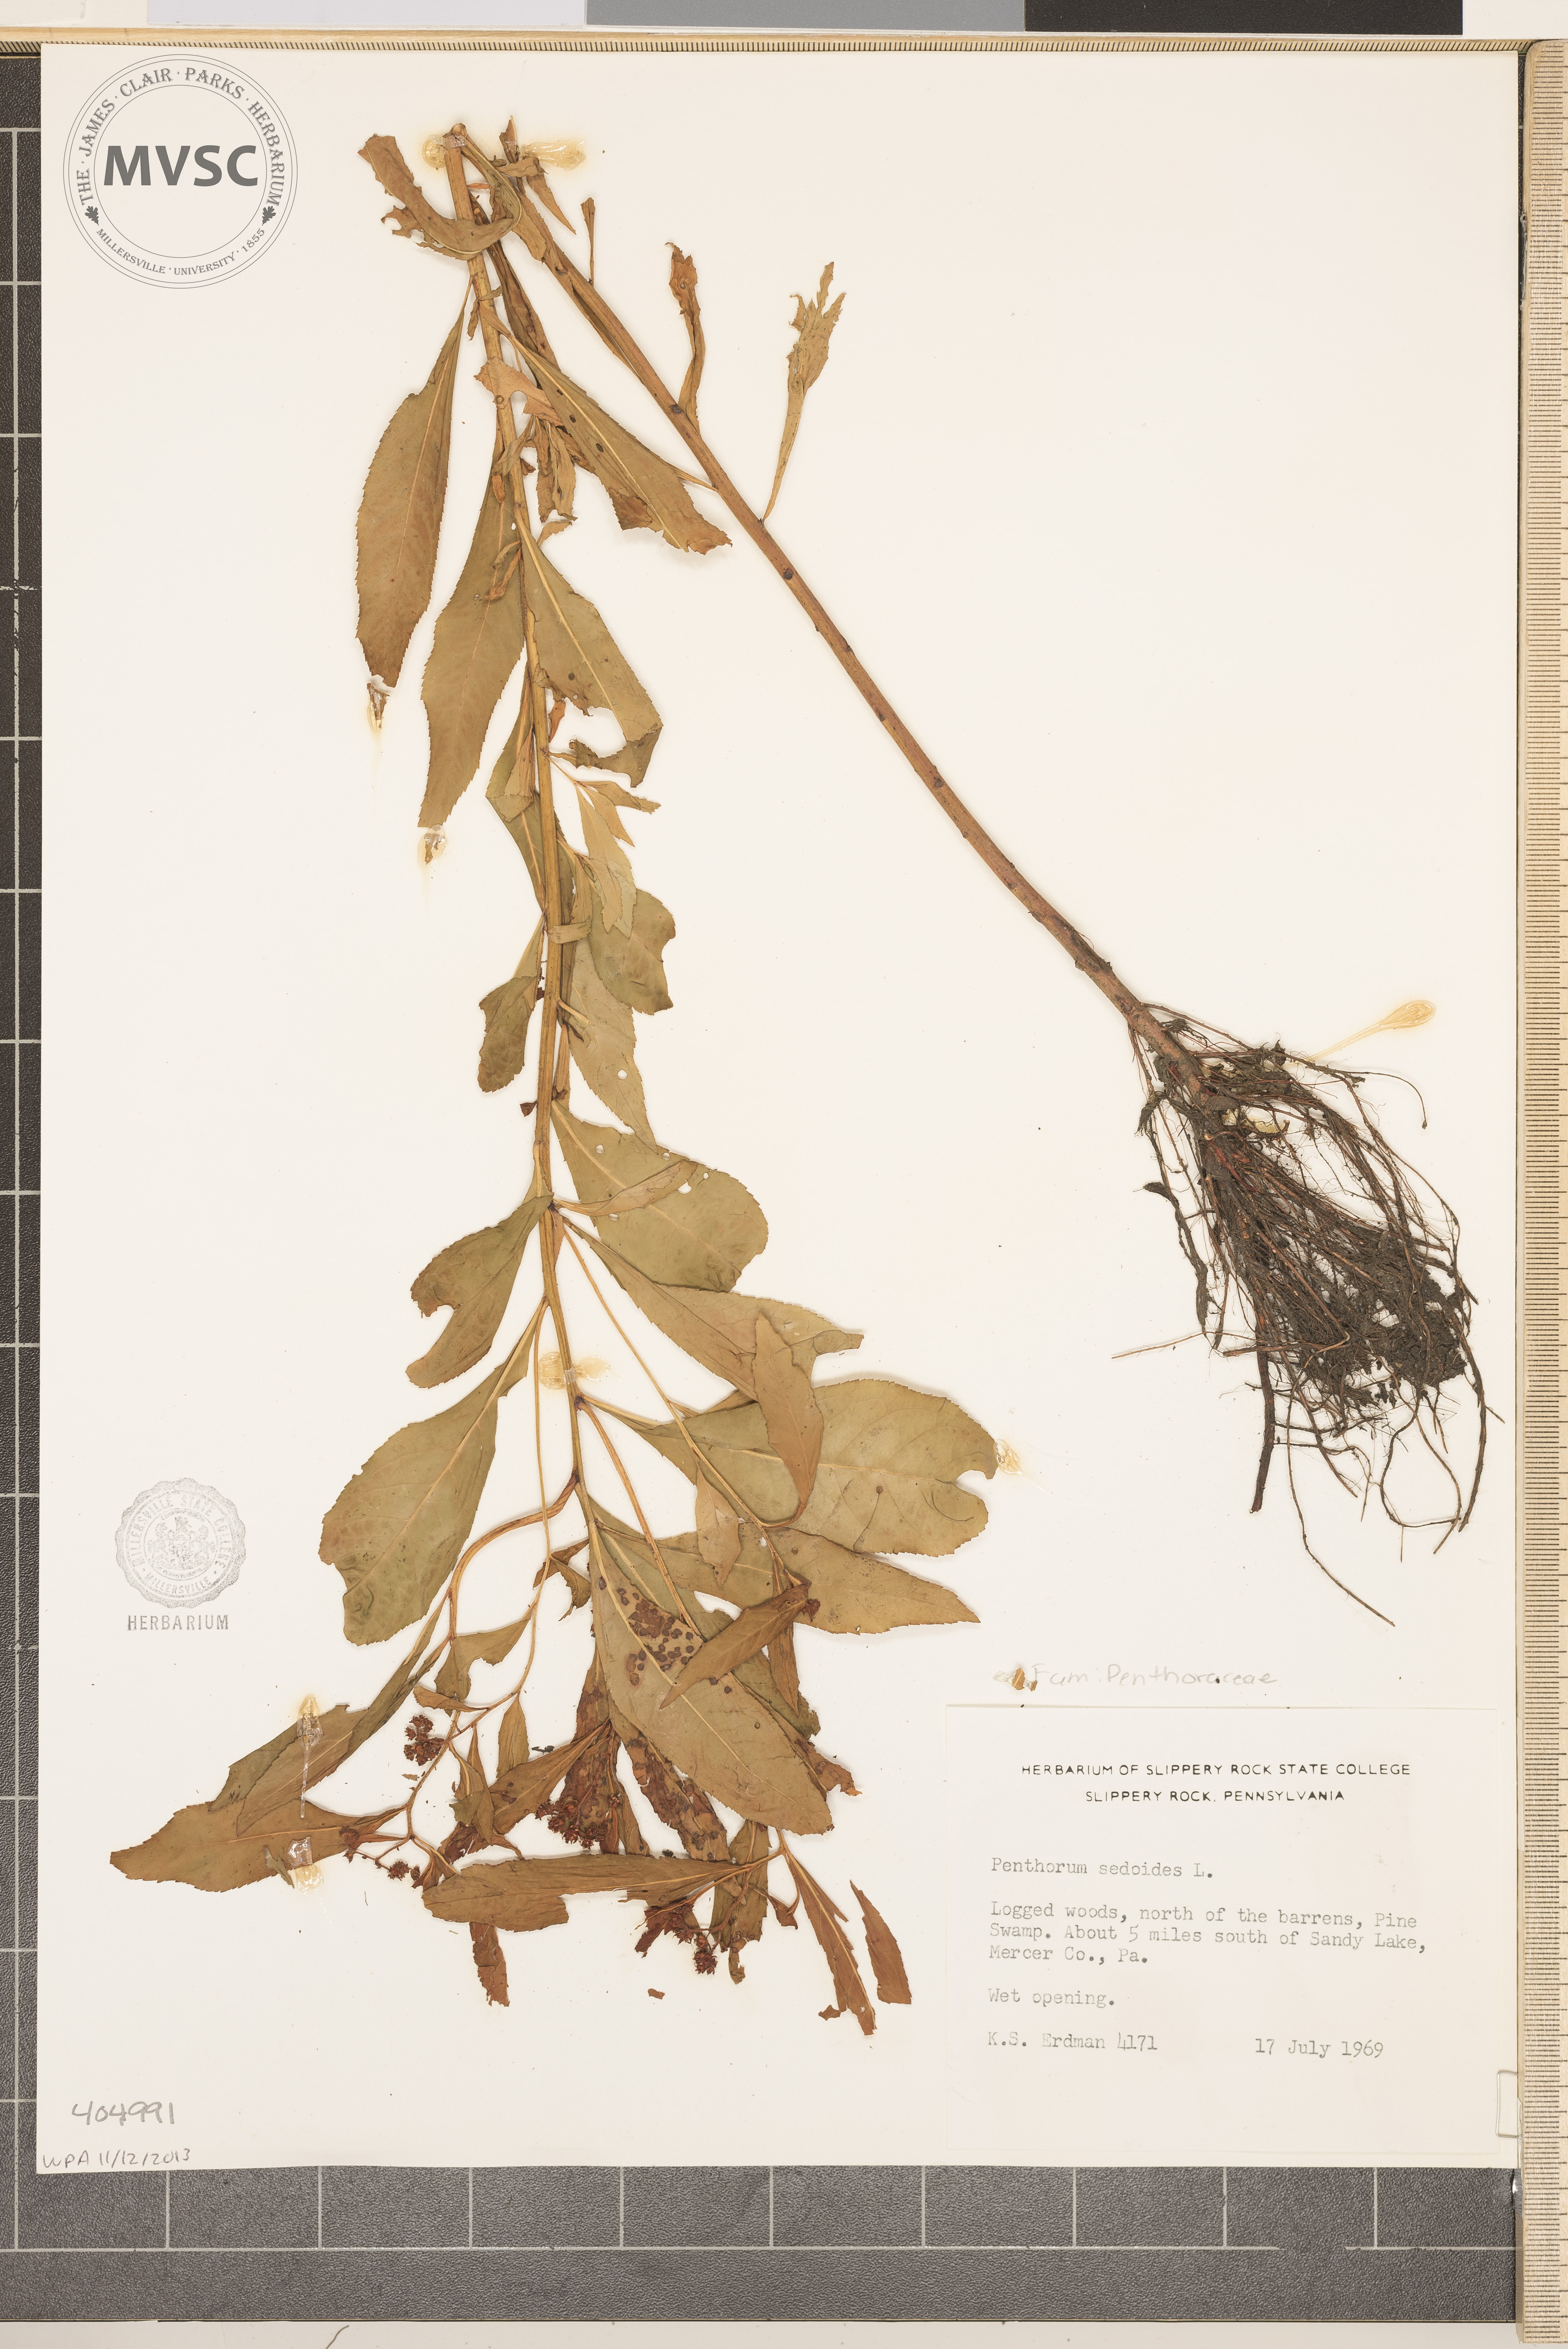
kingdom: Plantae
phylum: Tracheophyta
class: Magnoliopsida
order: Saxifragales
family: Penthoraceae
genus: Penthorum
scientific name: Penthorum sedoides
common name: Ditch stonecrop
